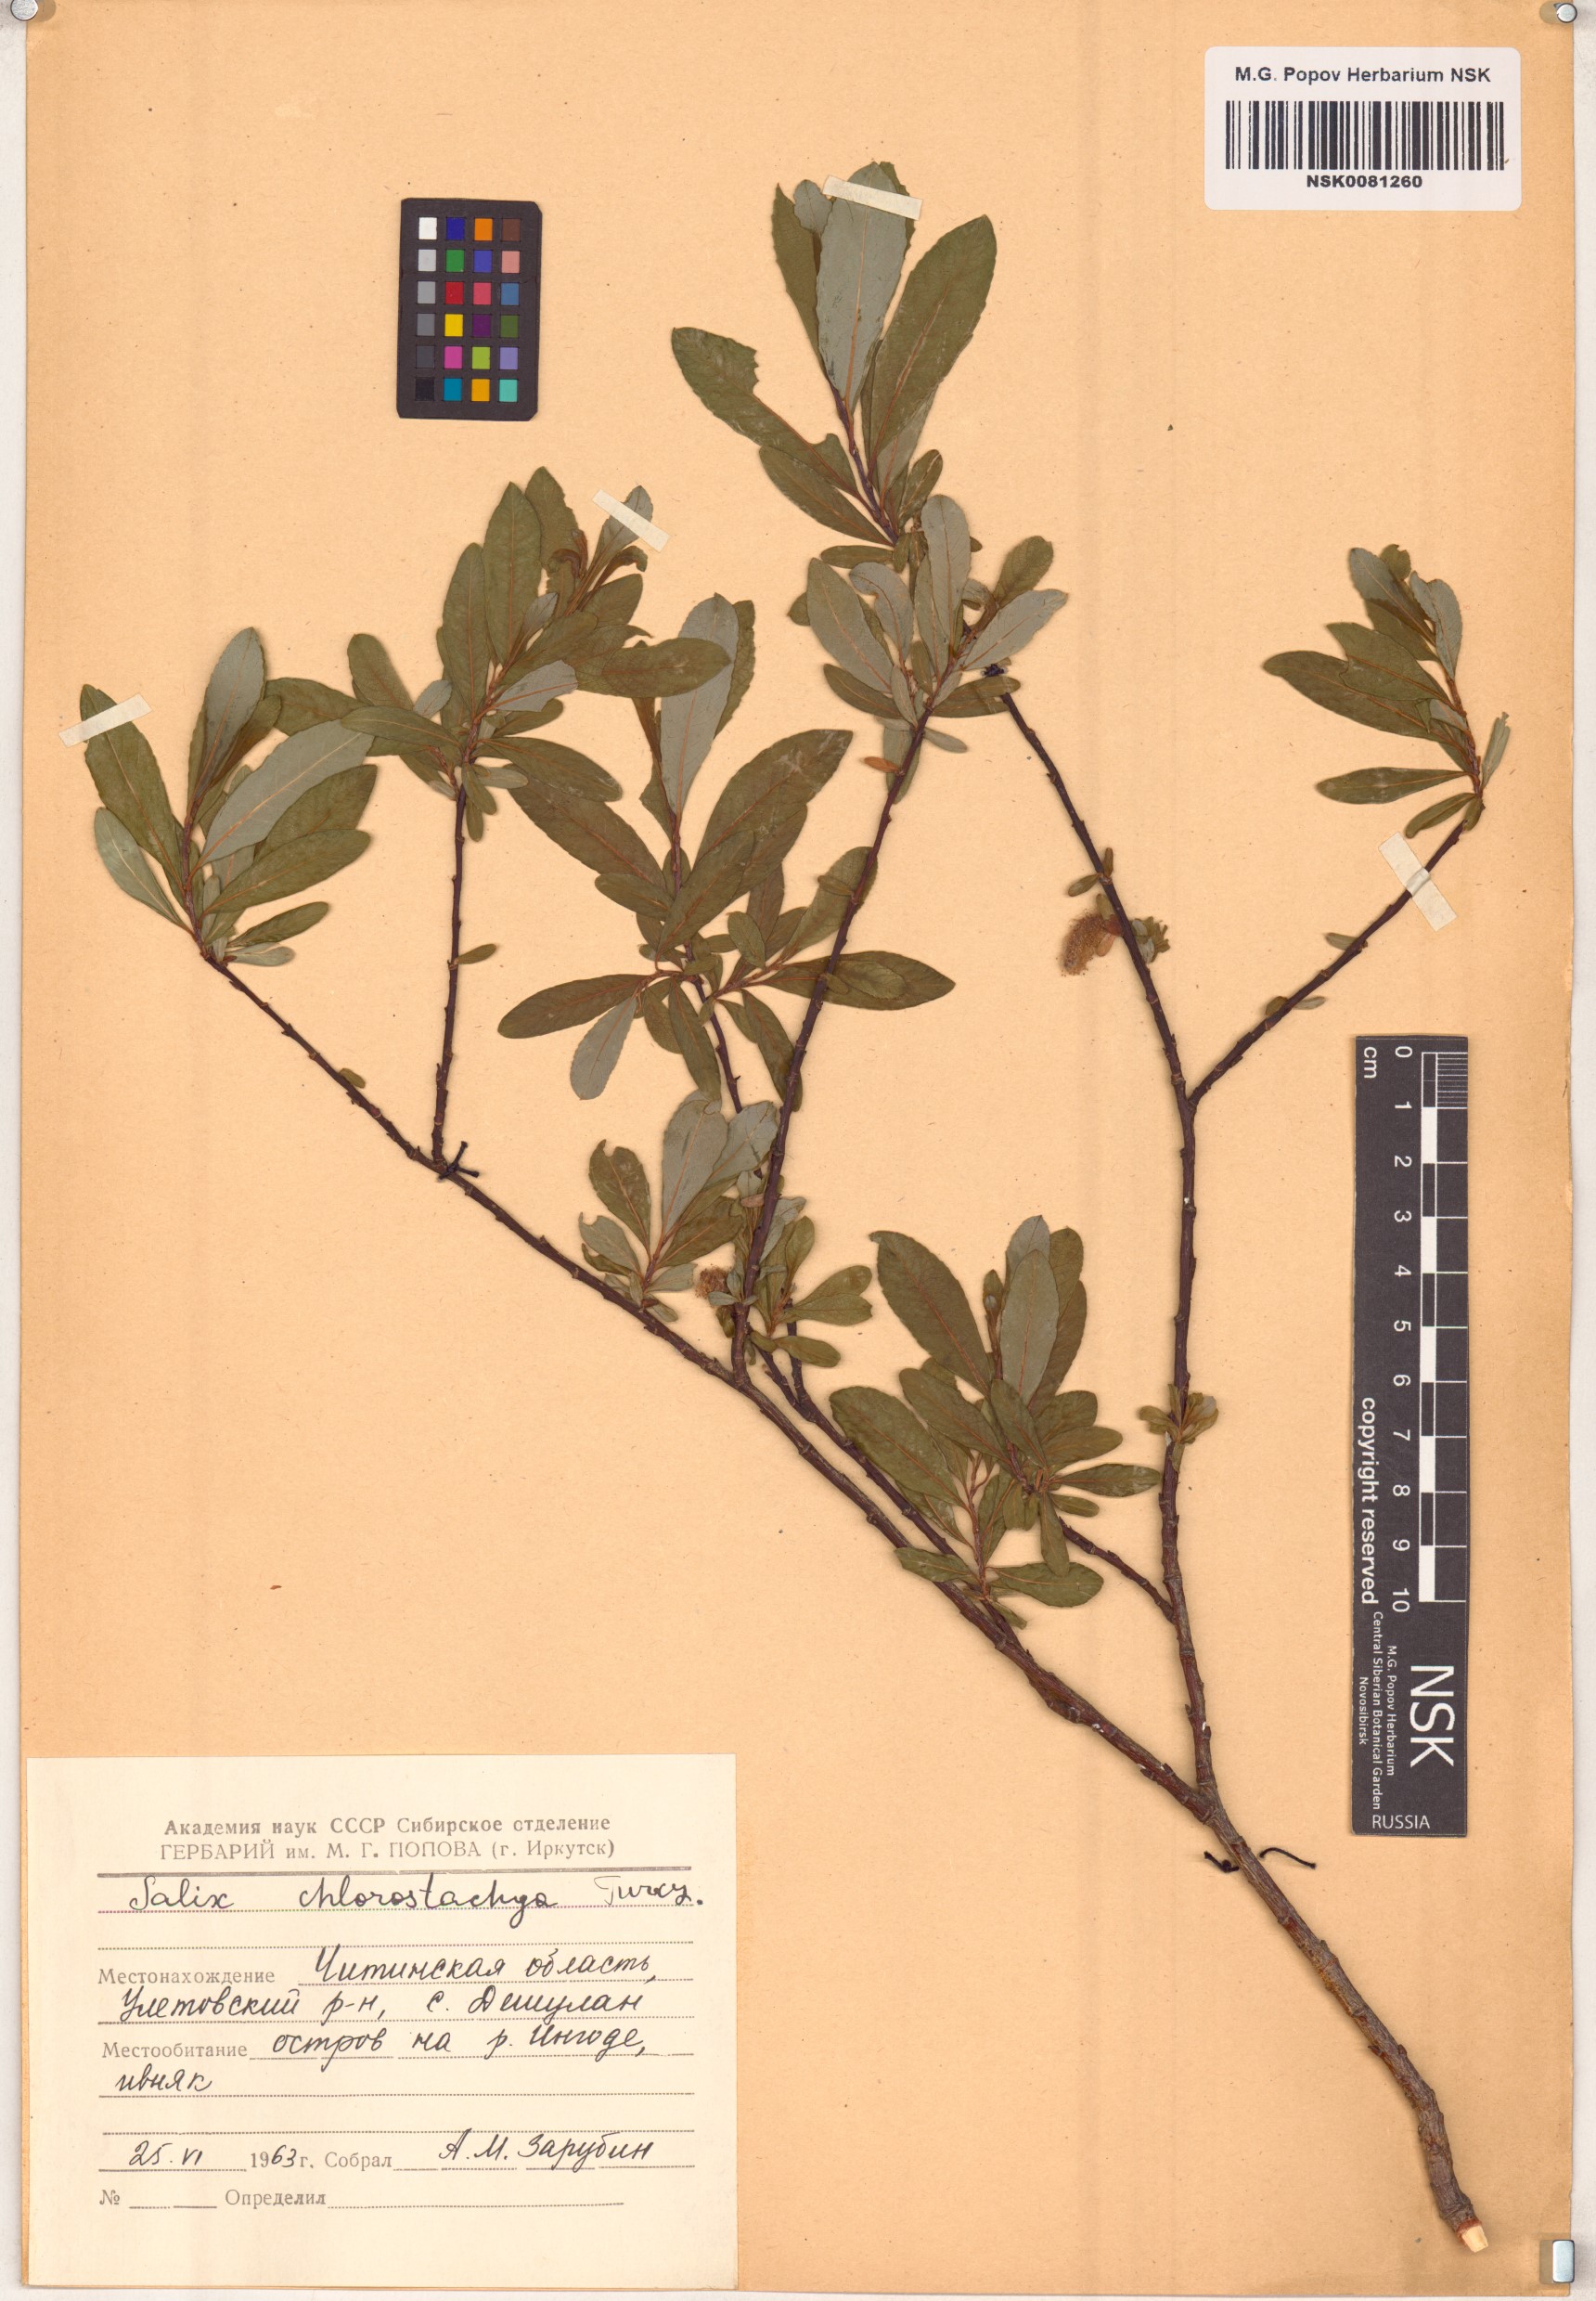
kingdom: Plantae
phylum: Tracheophyta
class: Magnoliopsida
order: Malpighiales
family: Salicaceae
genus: Salix
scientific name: Salix rhamnifolia
